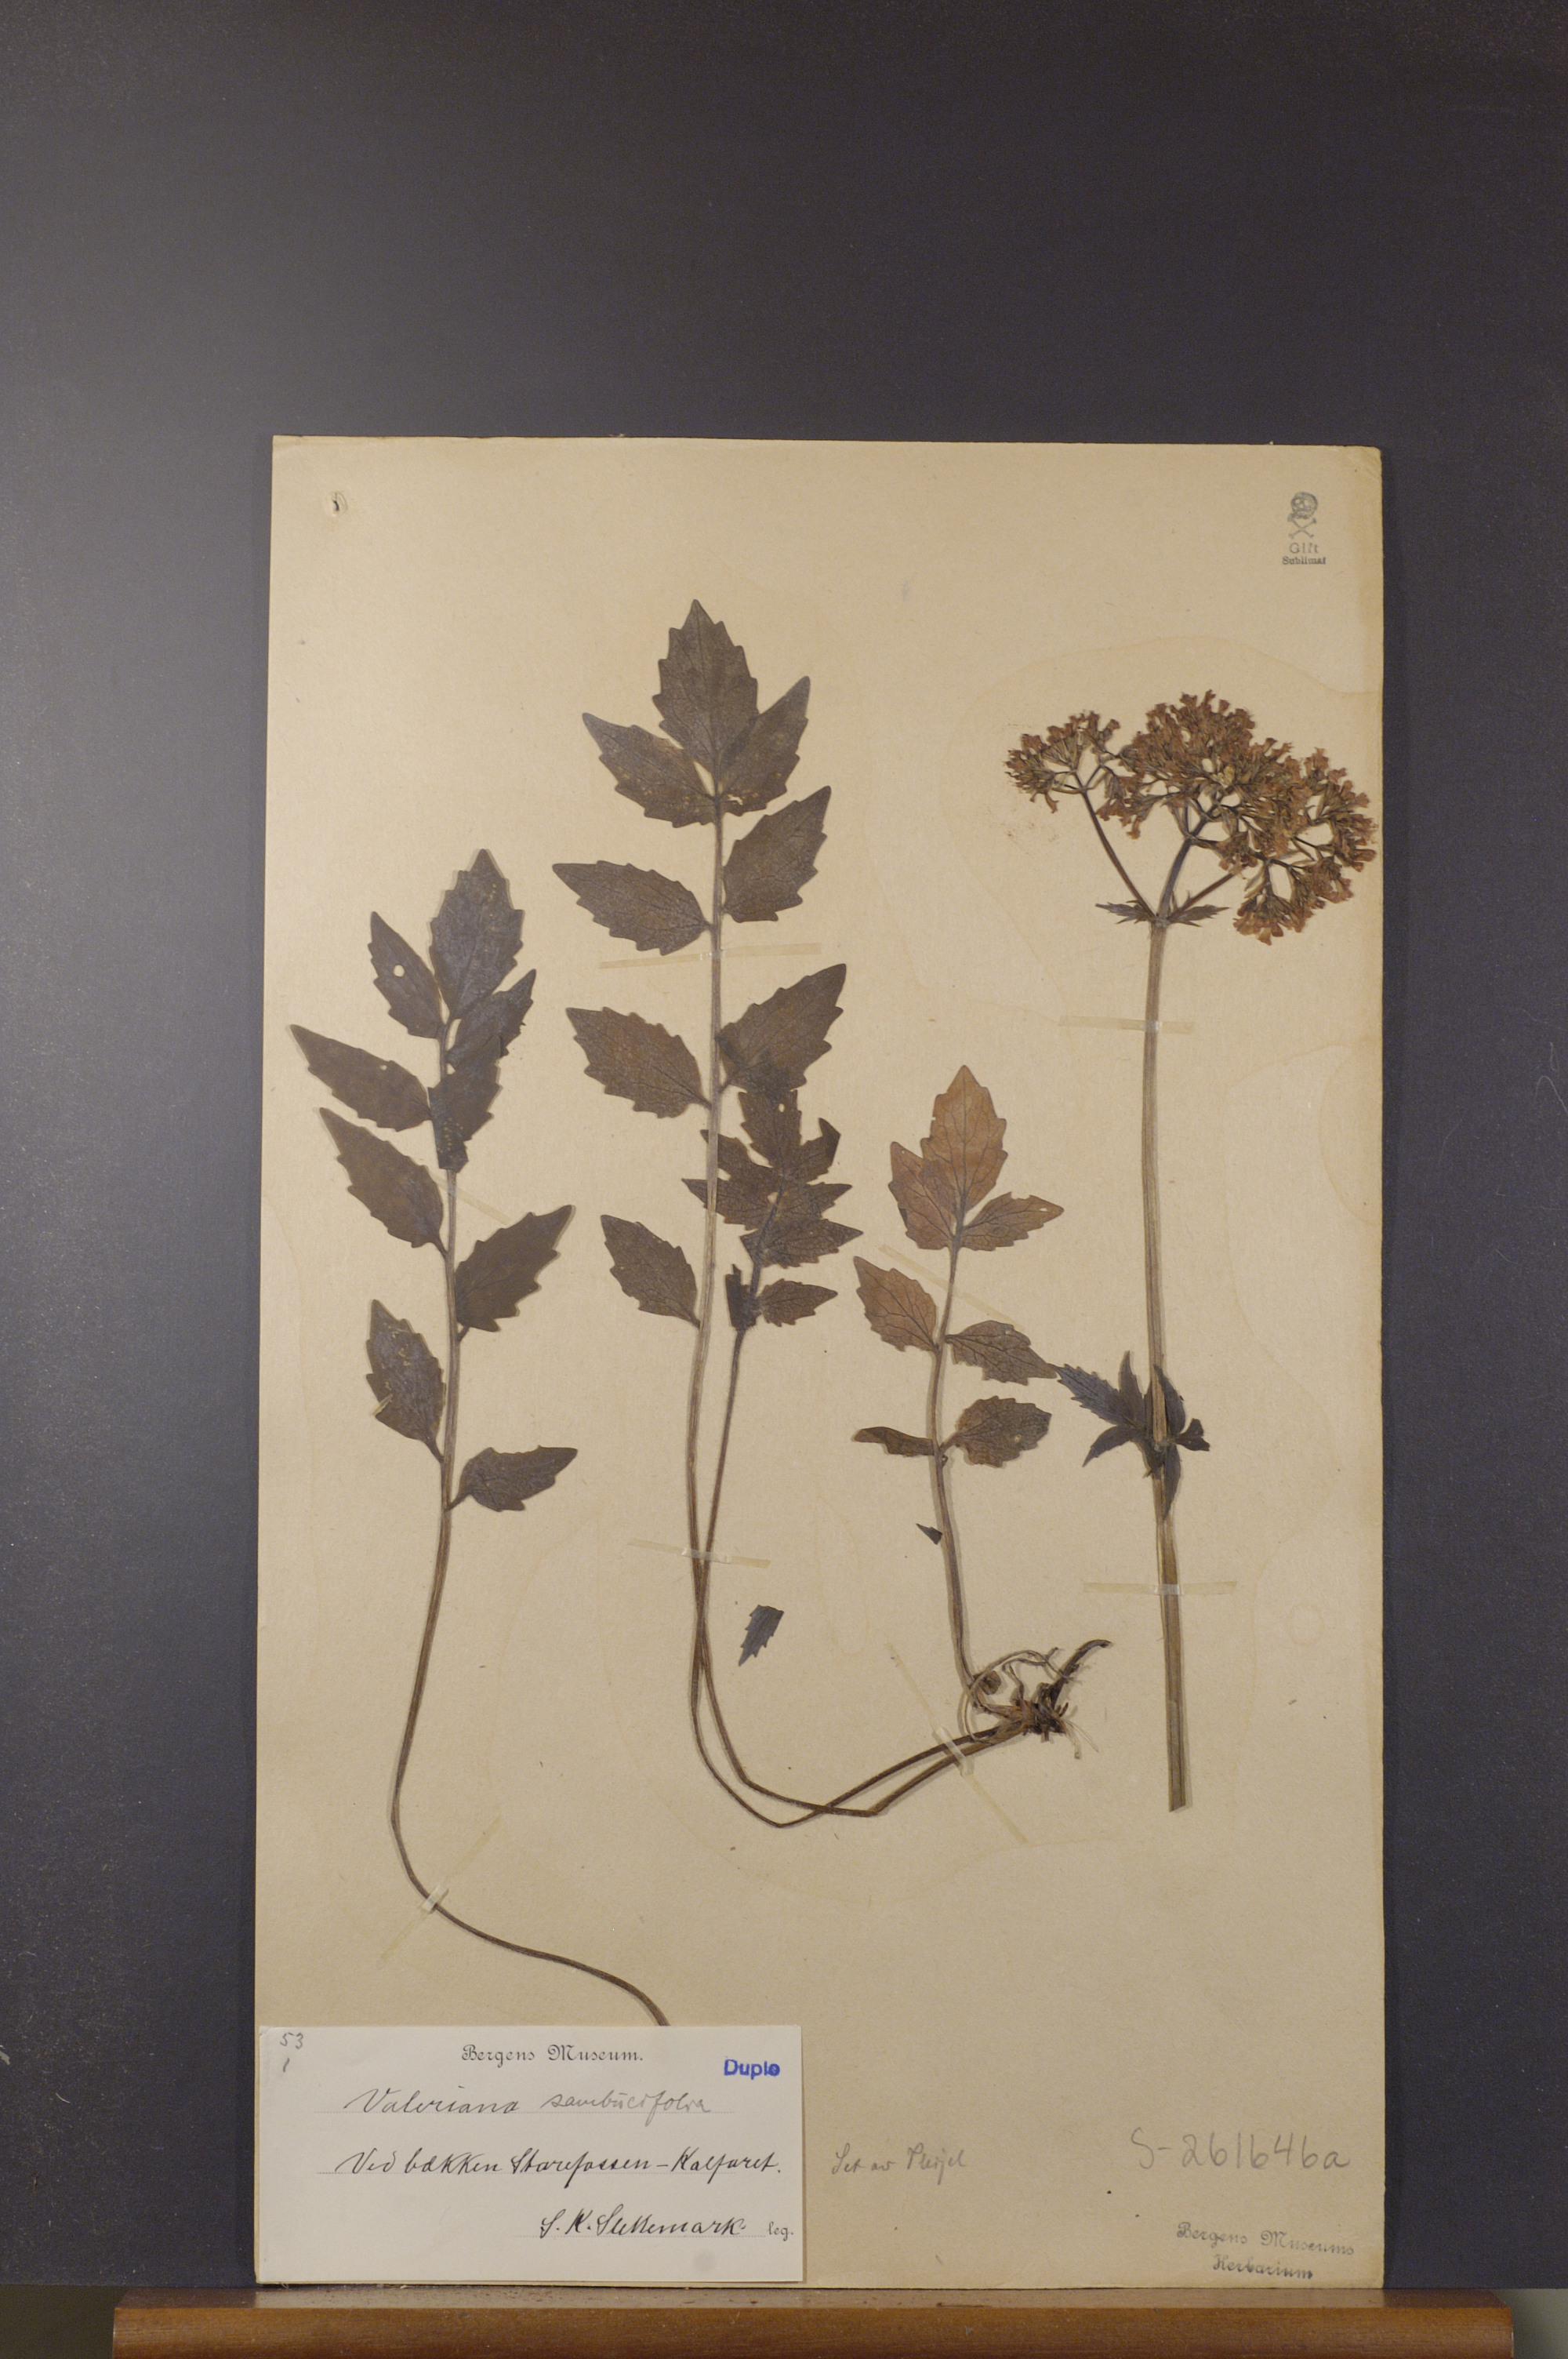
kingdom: Plantae
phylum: Tracheophyta
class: Magnoliopsida
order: Dipsacales
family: Caprifoliaceae
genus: Valeriana
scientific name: Valeriana excelsa
